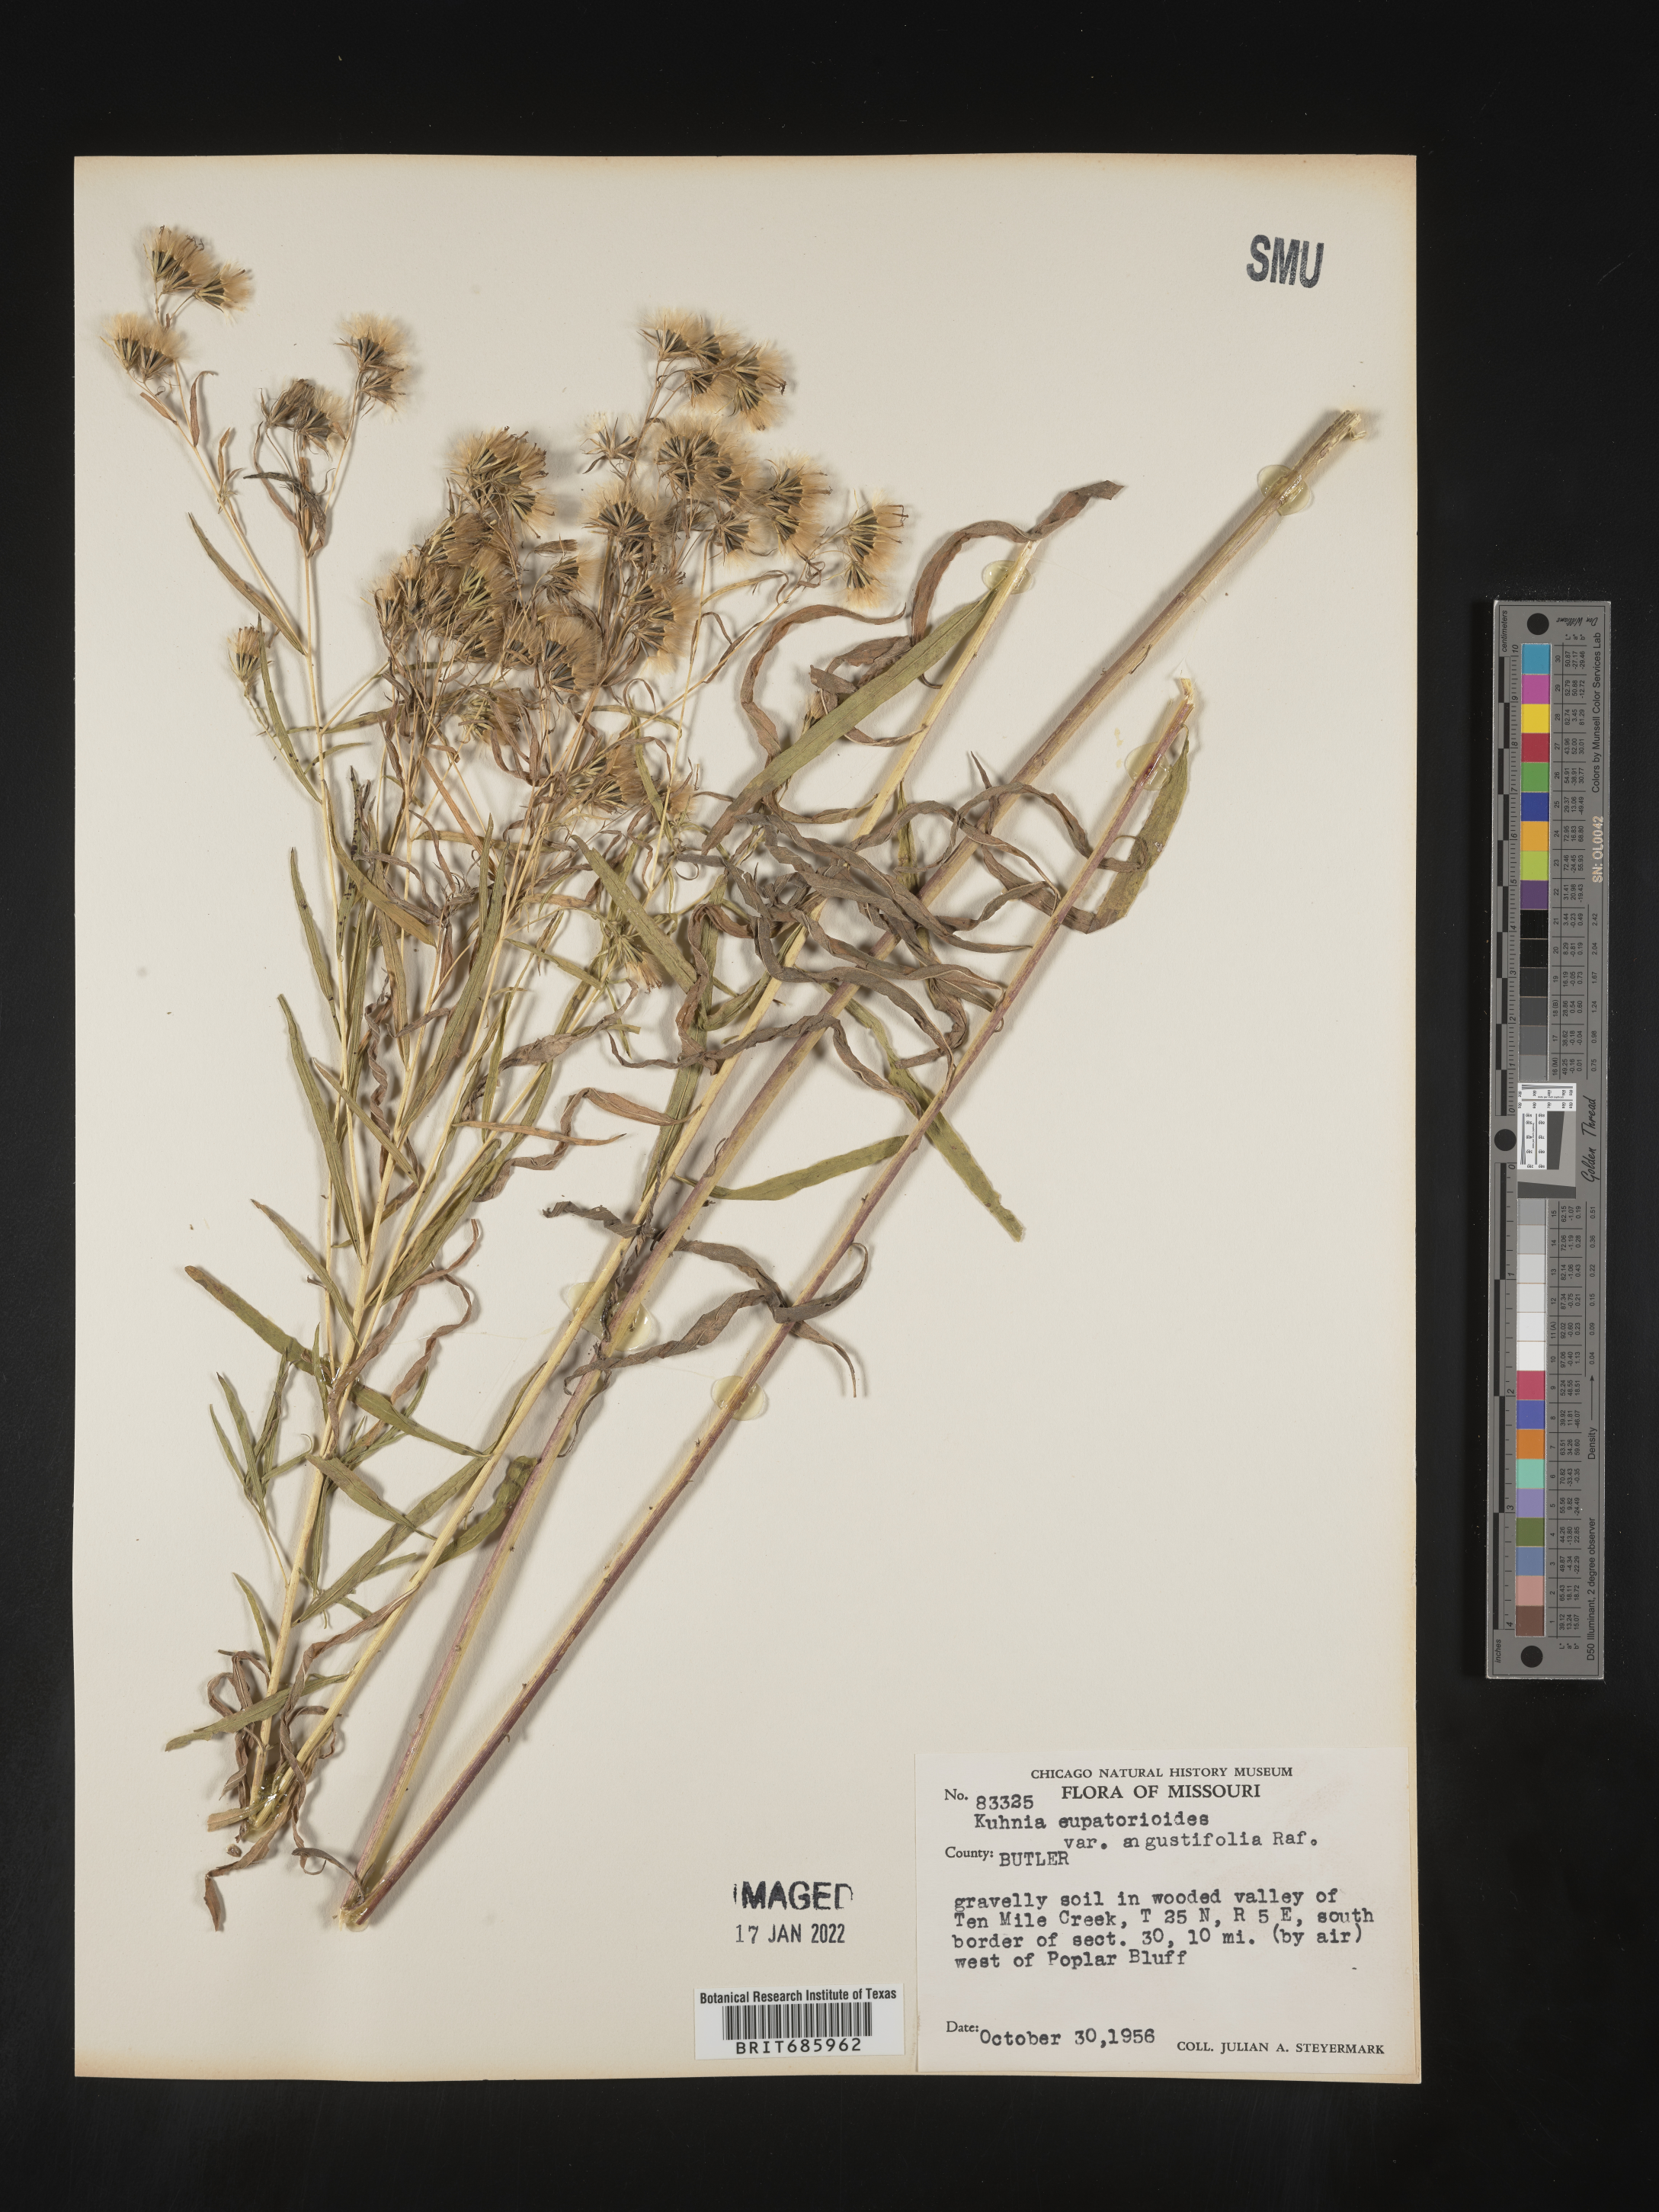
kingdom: Plantae
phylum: Tracheophyta
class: Magnoliopsida
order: Asterales
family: Asteraceae
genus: Brickellia
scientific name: Brickellia eupatorioides
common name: False boneset
